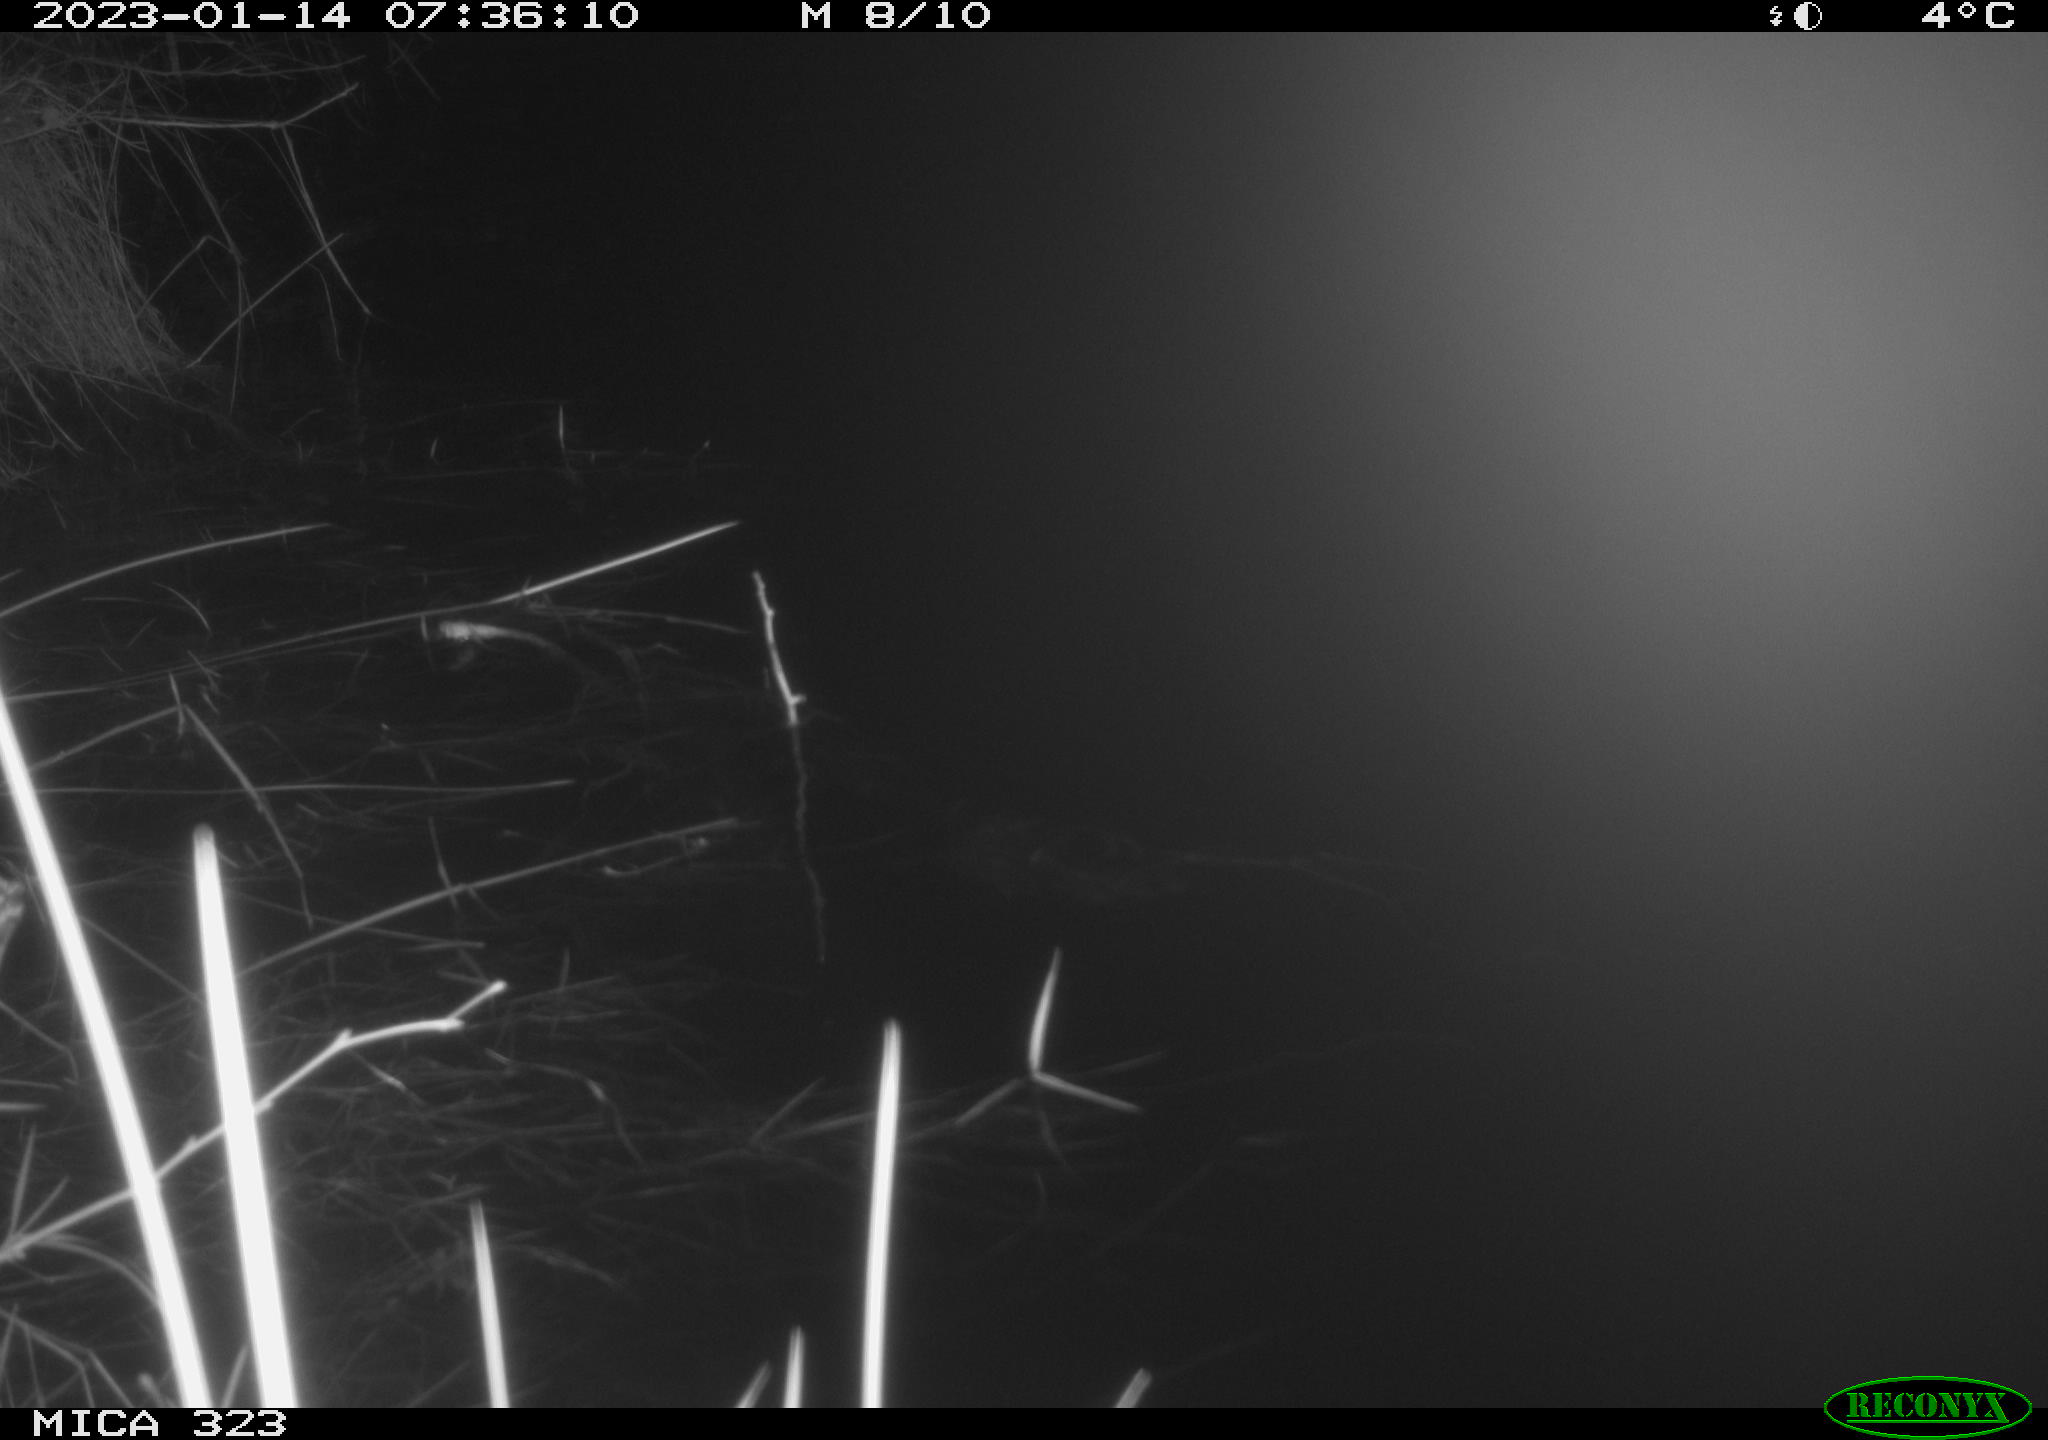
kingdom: Animalia
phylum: Chordata
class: Mammalia
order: Rodentia
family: Cricetidae
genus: Ondatra
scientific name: Ondatra zibethicus
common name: Muskrat
